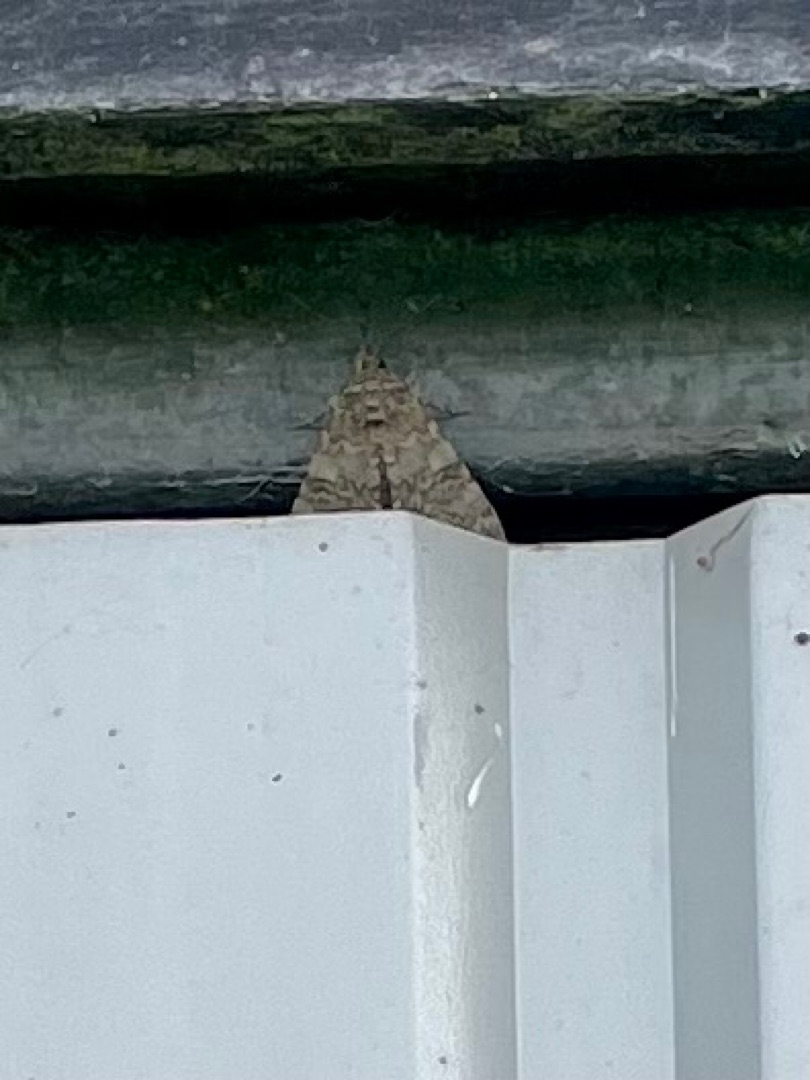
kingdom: Animalia
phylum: Arthropoda
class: Insecta
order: Lepidoptera
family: Erebidae
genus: Catocala
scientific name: Catocala nupta
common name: Rødt ordensbånd
